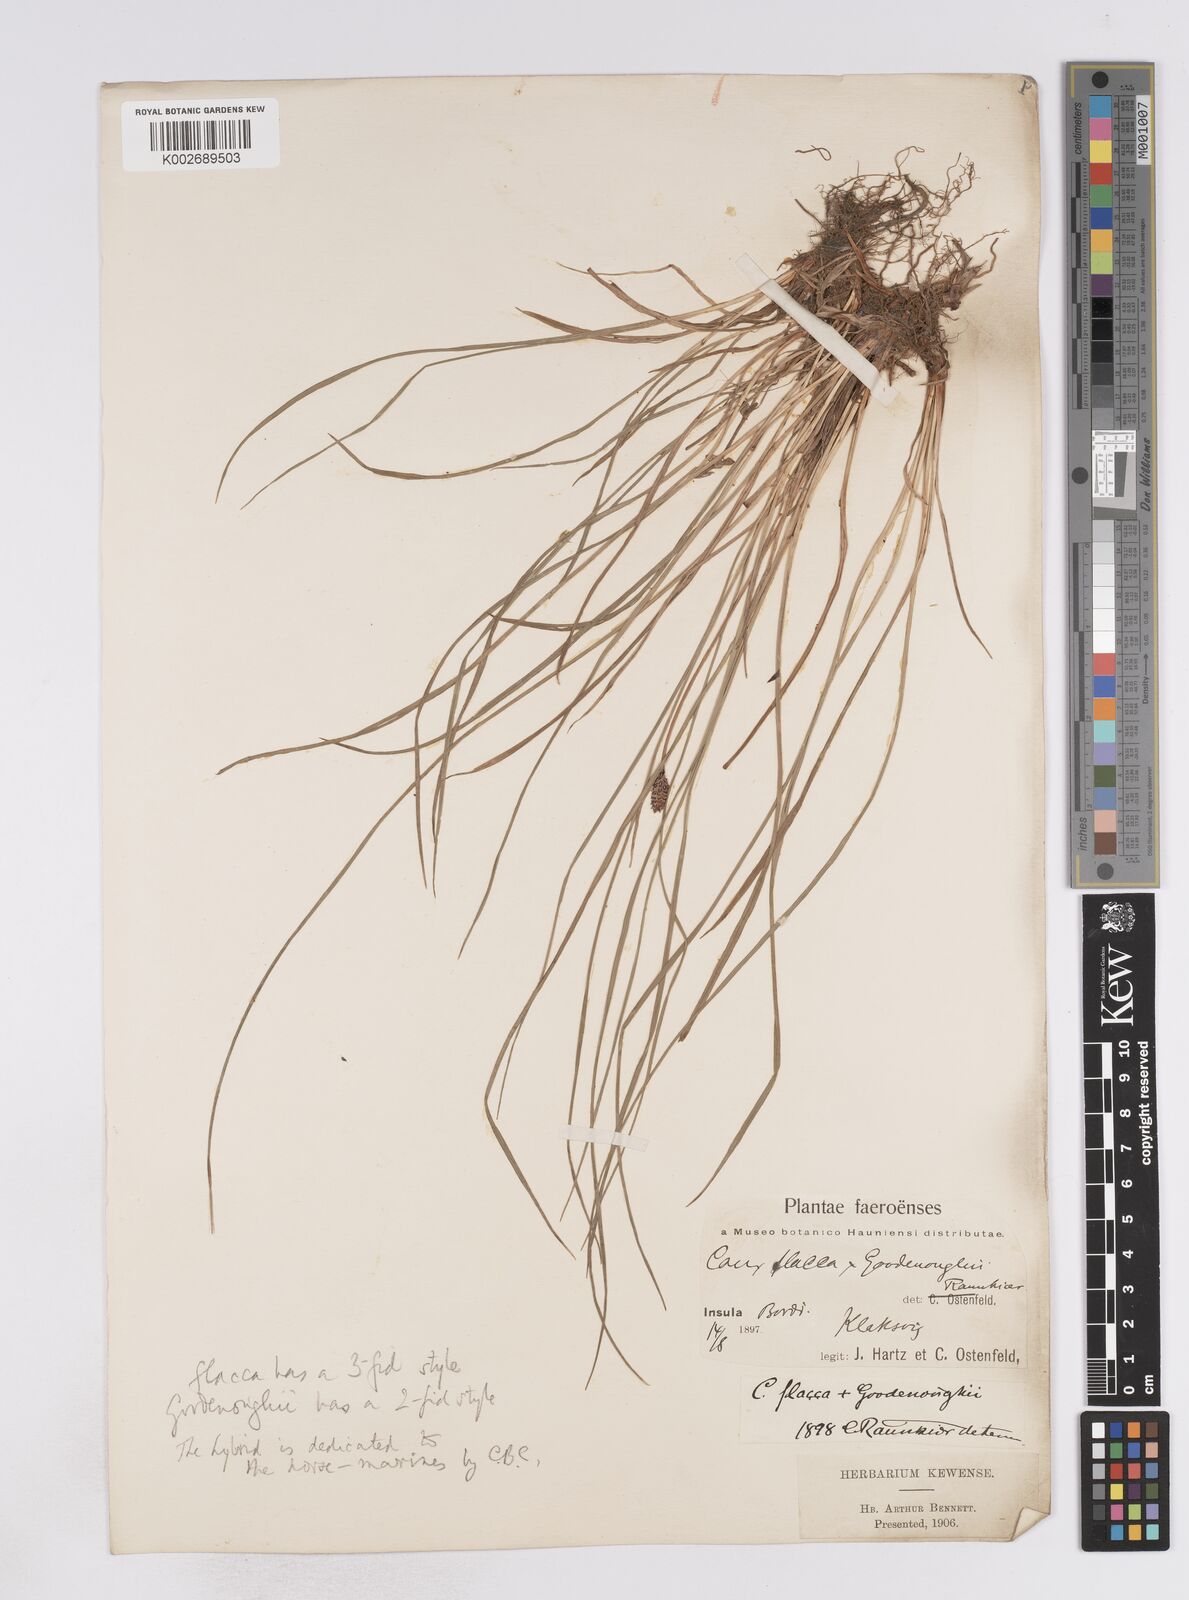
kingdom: Plantae
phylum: Tracheophyta
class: Liliopsida
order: Poales
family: Cyperaceae
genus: Carex
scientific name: Carex flacca
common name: Glaucous sedge
